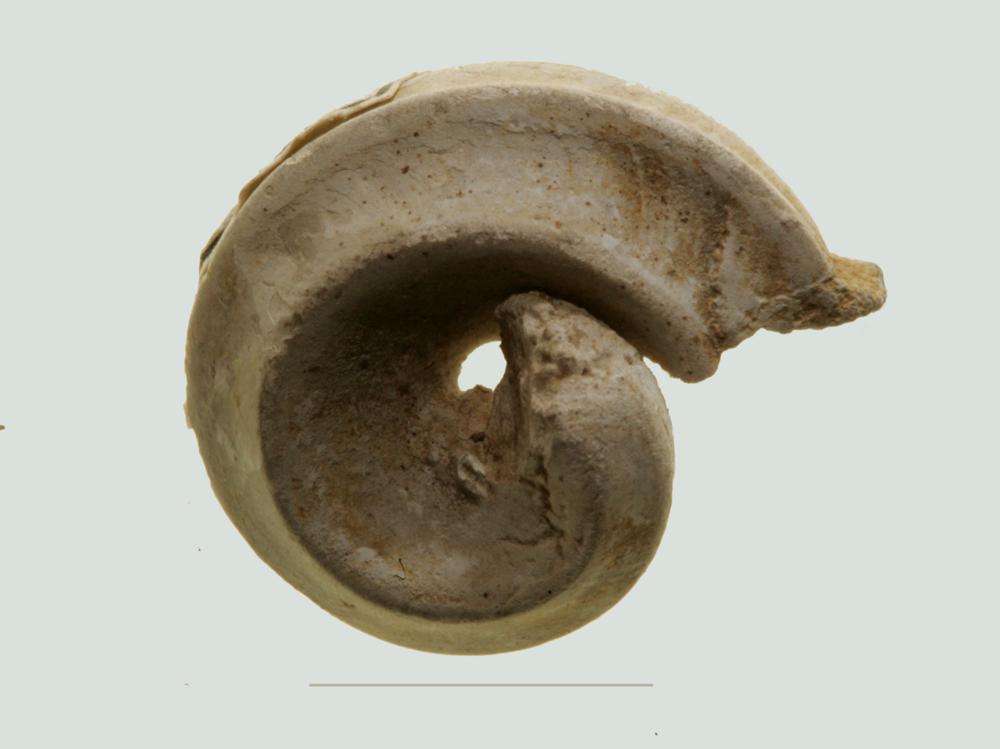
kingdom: Animalia
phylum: Mollusca
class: Gastropoda
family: Lophospiridae
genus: Ruedemannia
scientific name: Ruedemannia Worthenia borkholmiensis
